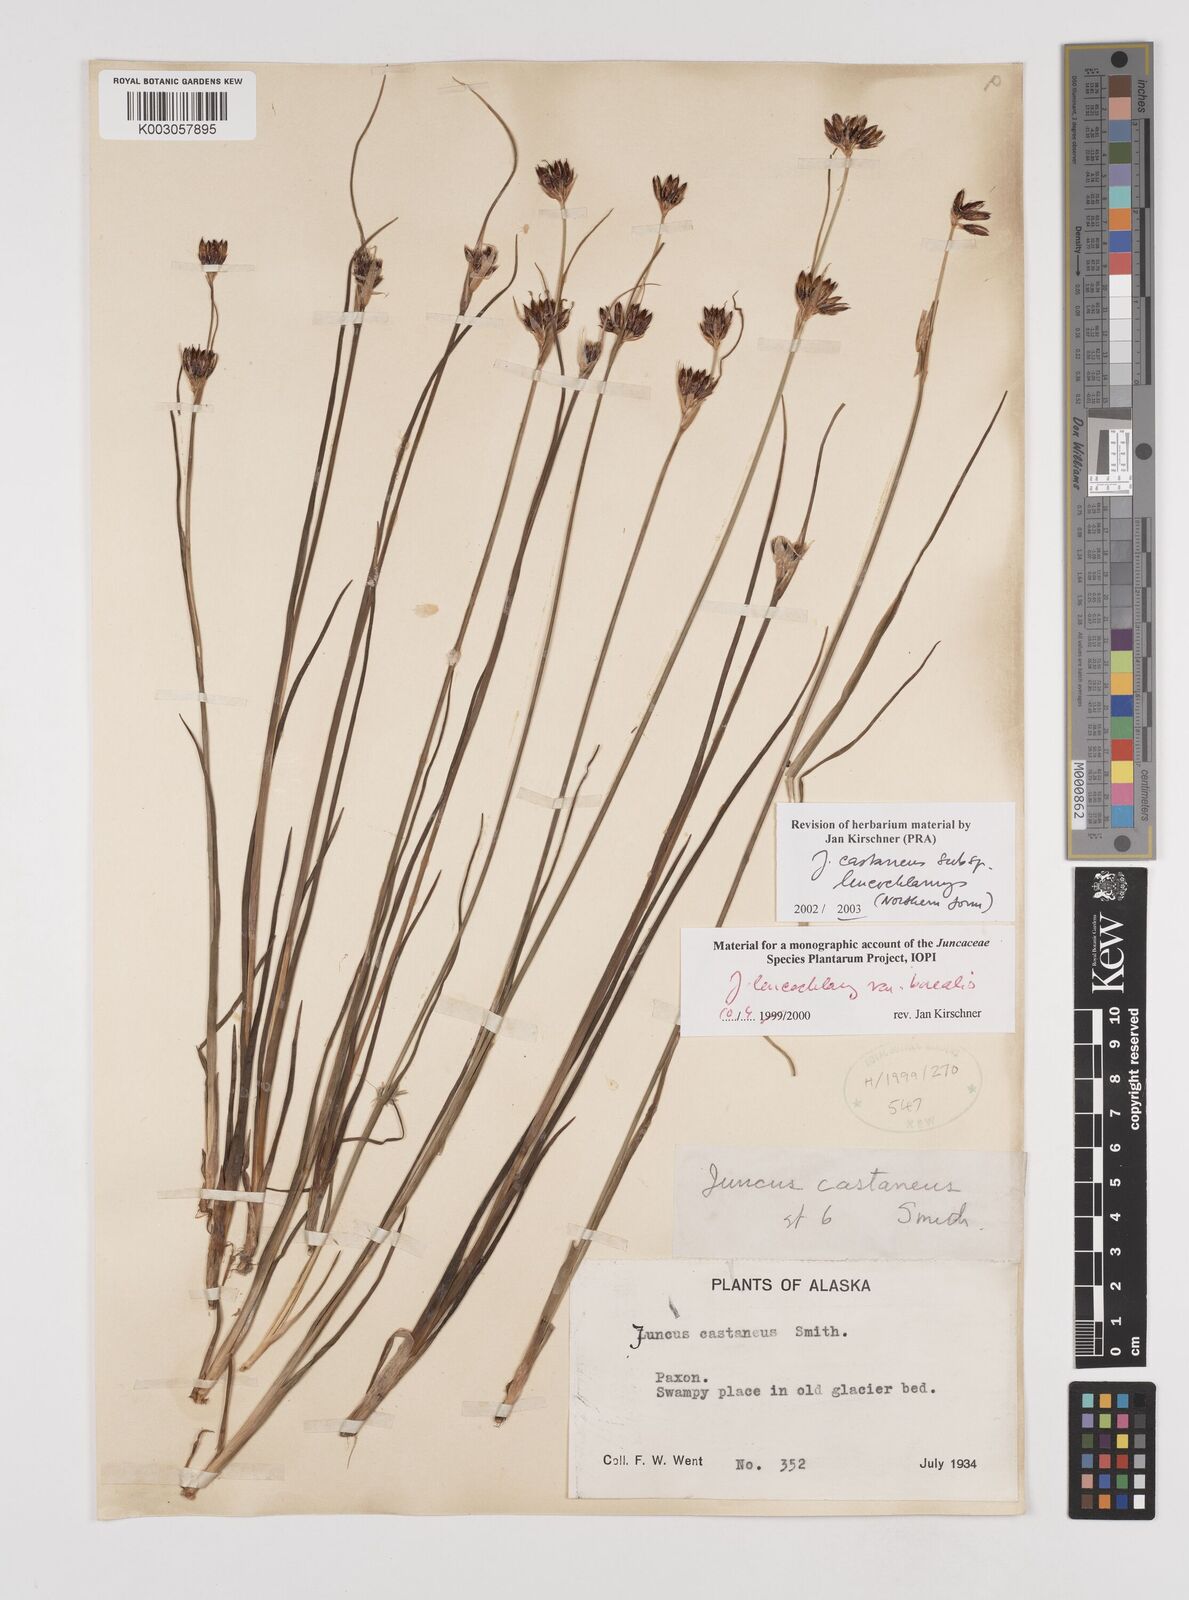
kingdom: Plantae
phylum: Tracheophyta
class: Liliopsida
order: Poales
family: Juncaceae
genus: Juncus
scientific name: Juncus castaneus
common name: Chestnut rush
